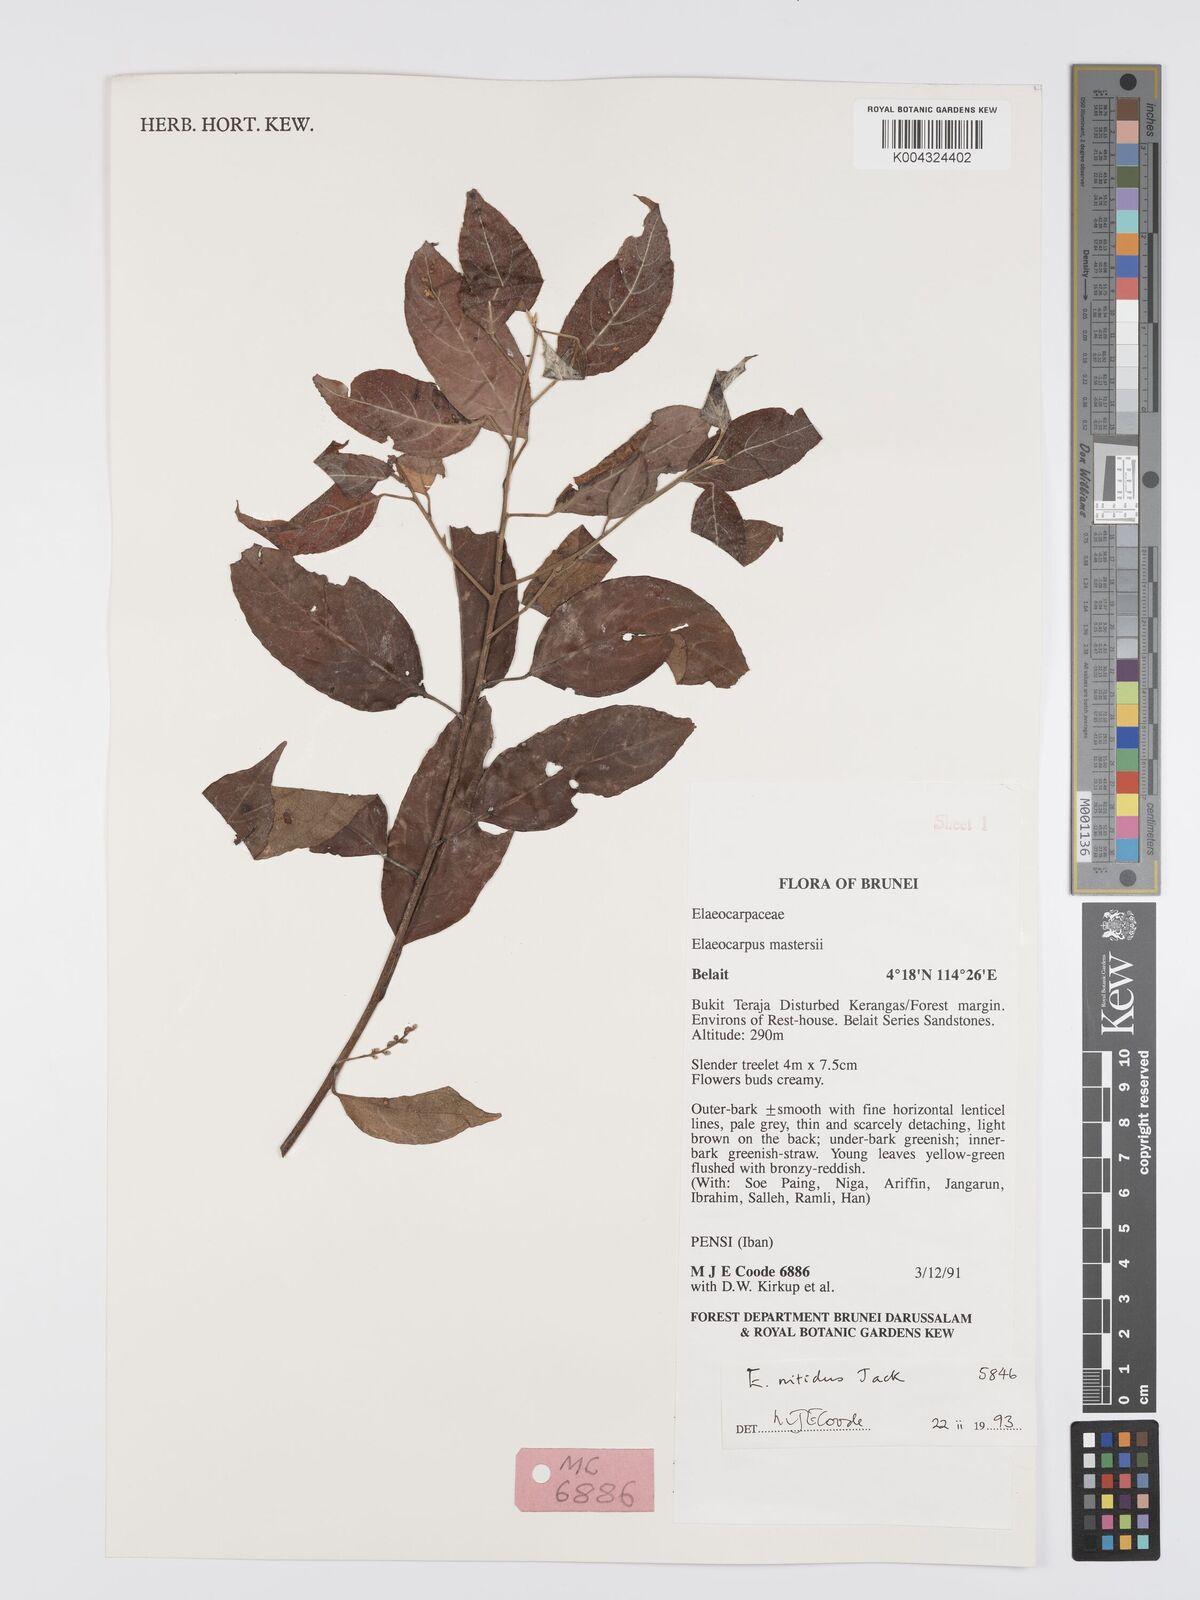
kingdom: Plantae
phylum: Tracheophyta
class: Magnoliopsida
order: Oxalidales
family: Elaeocarpaceae
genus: Elaeocarpus
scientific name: Elaeocarpus nitidus
